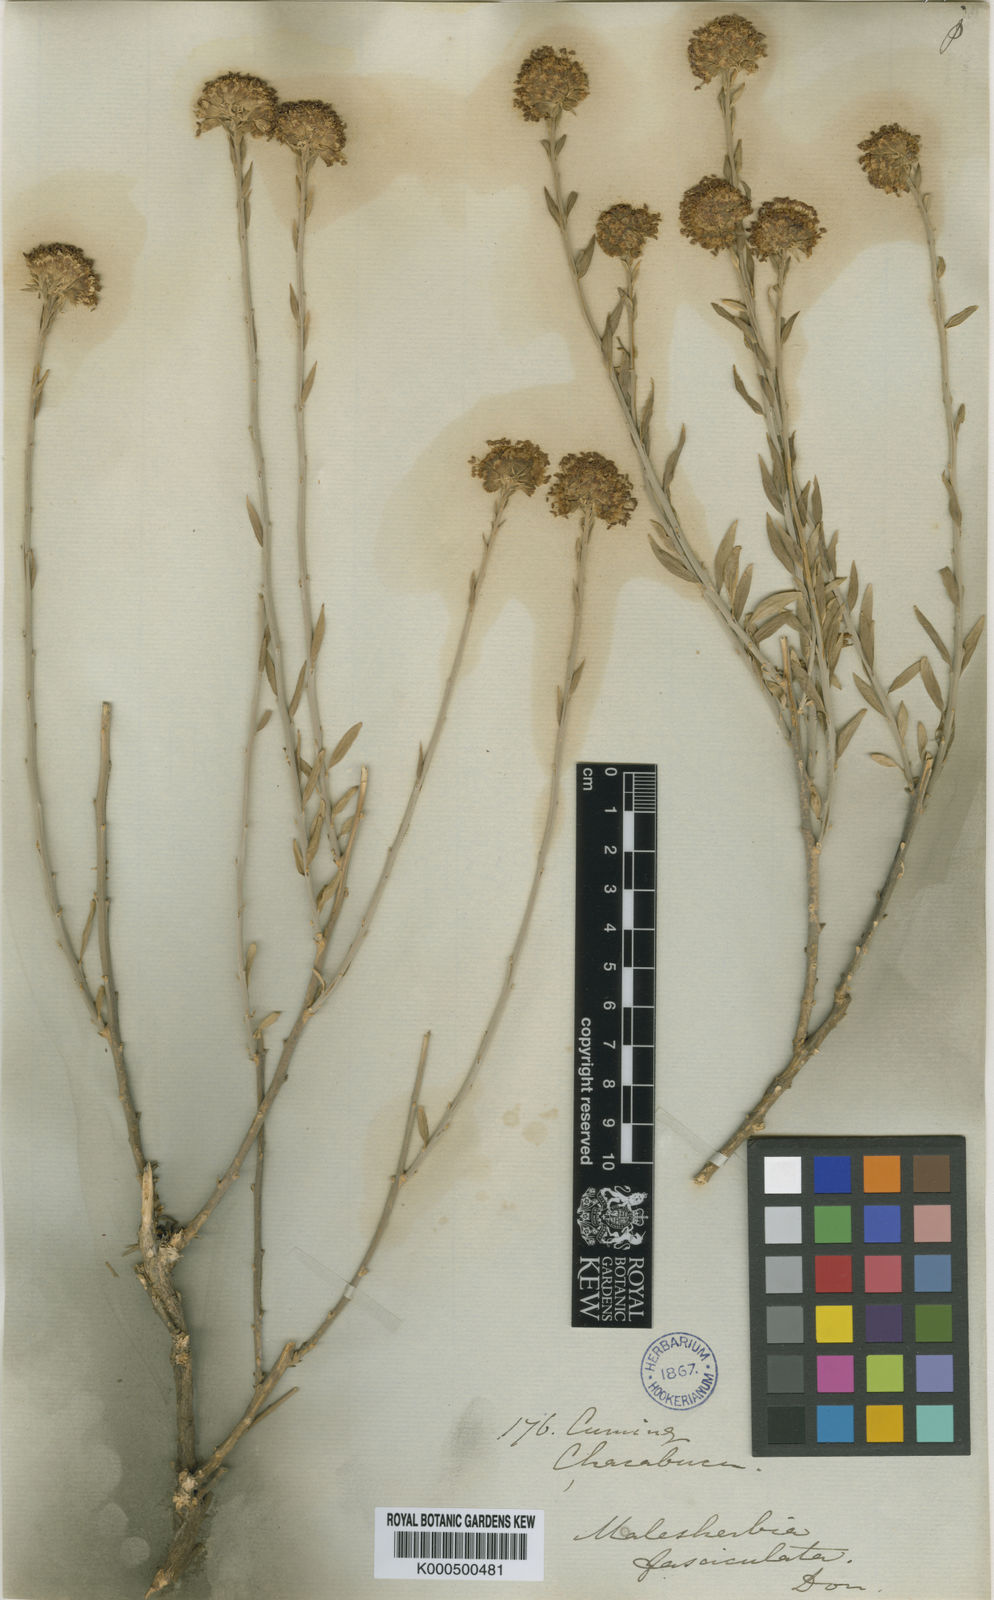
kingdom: Plantae
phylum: Tracheophyta
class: Magnoliopsida
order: Malpighiales
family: Malesherbiaceae
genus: Malesherbia
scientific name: Malesherbia fasciculata
